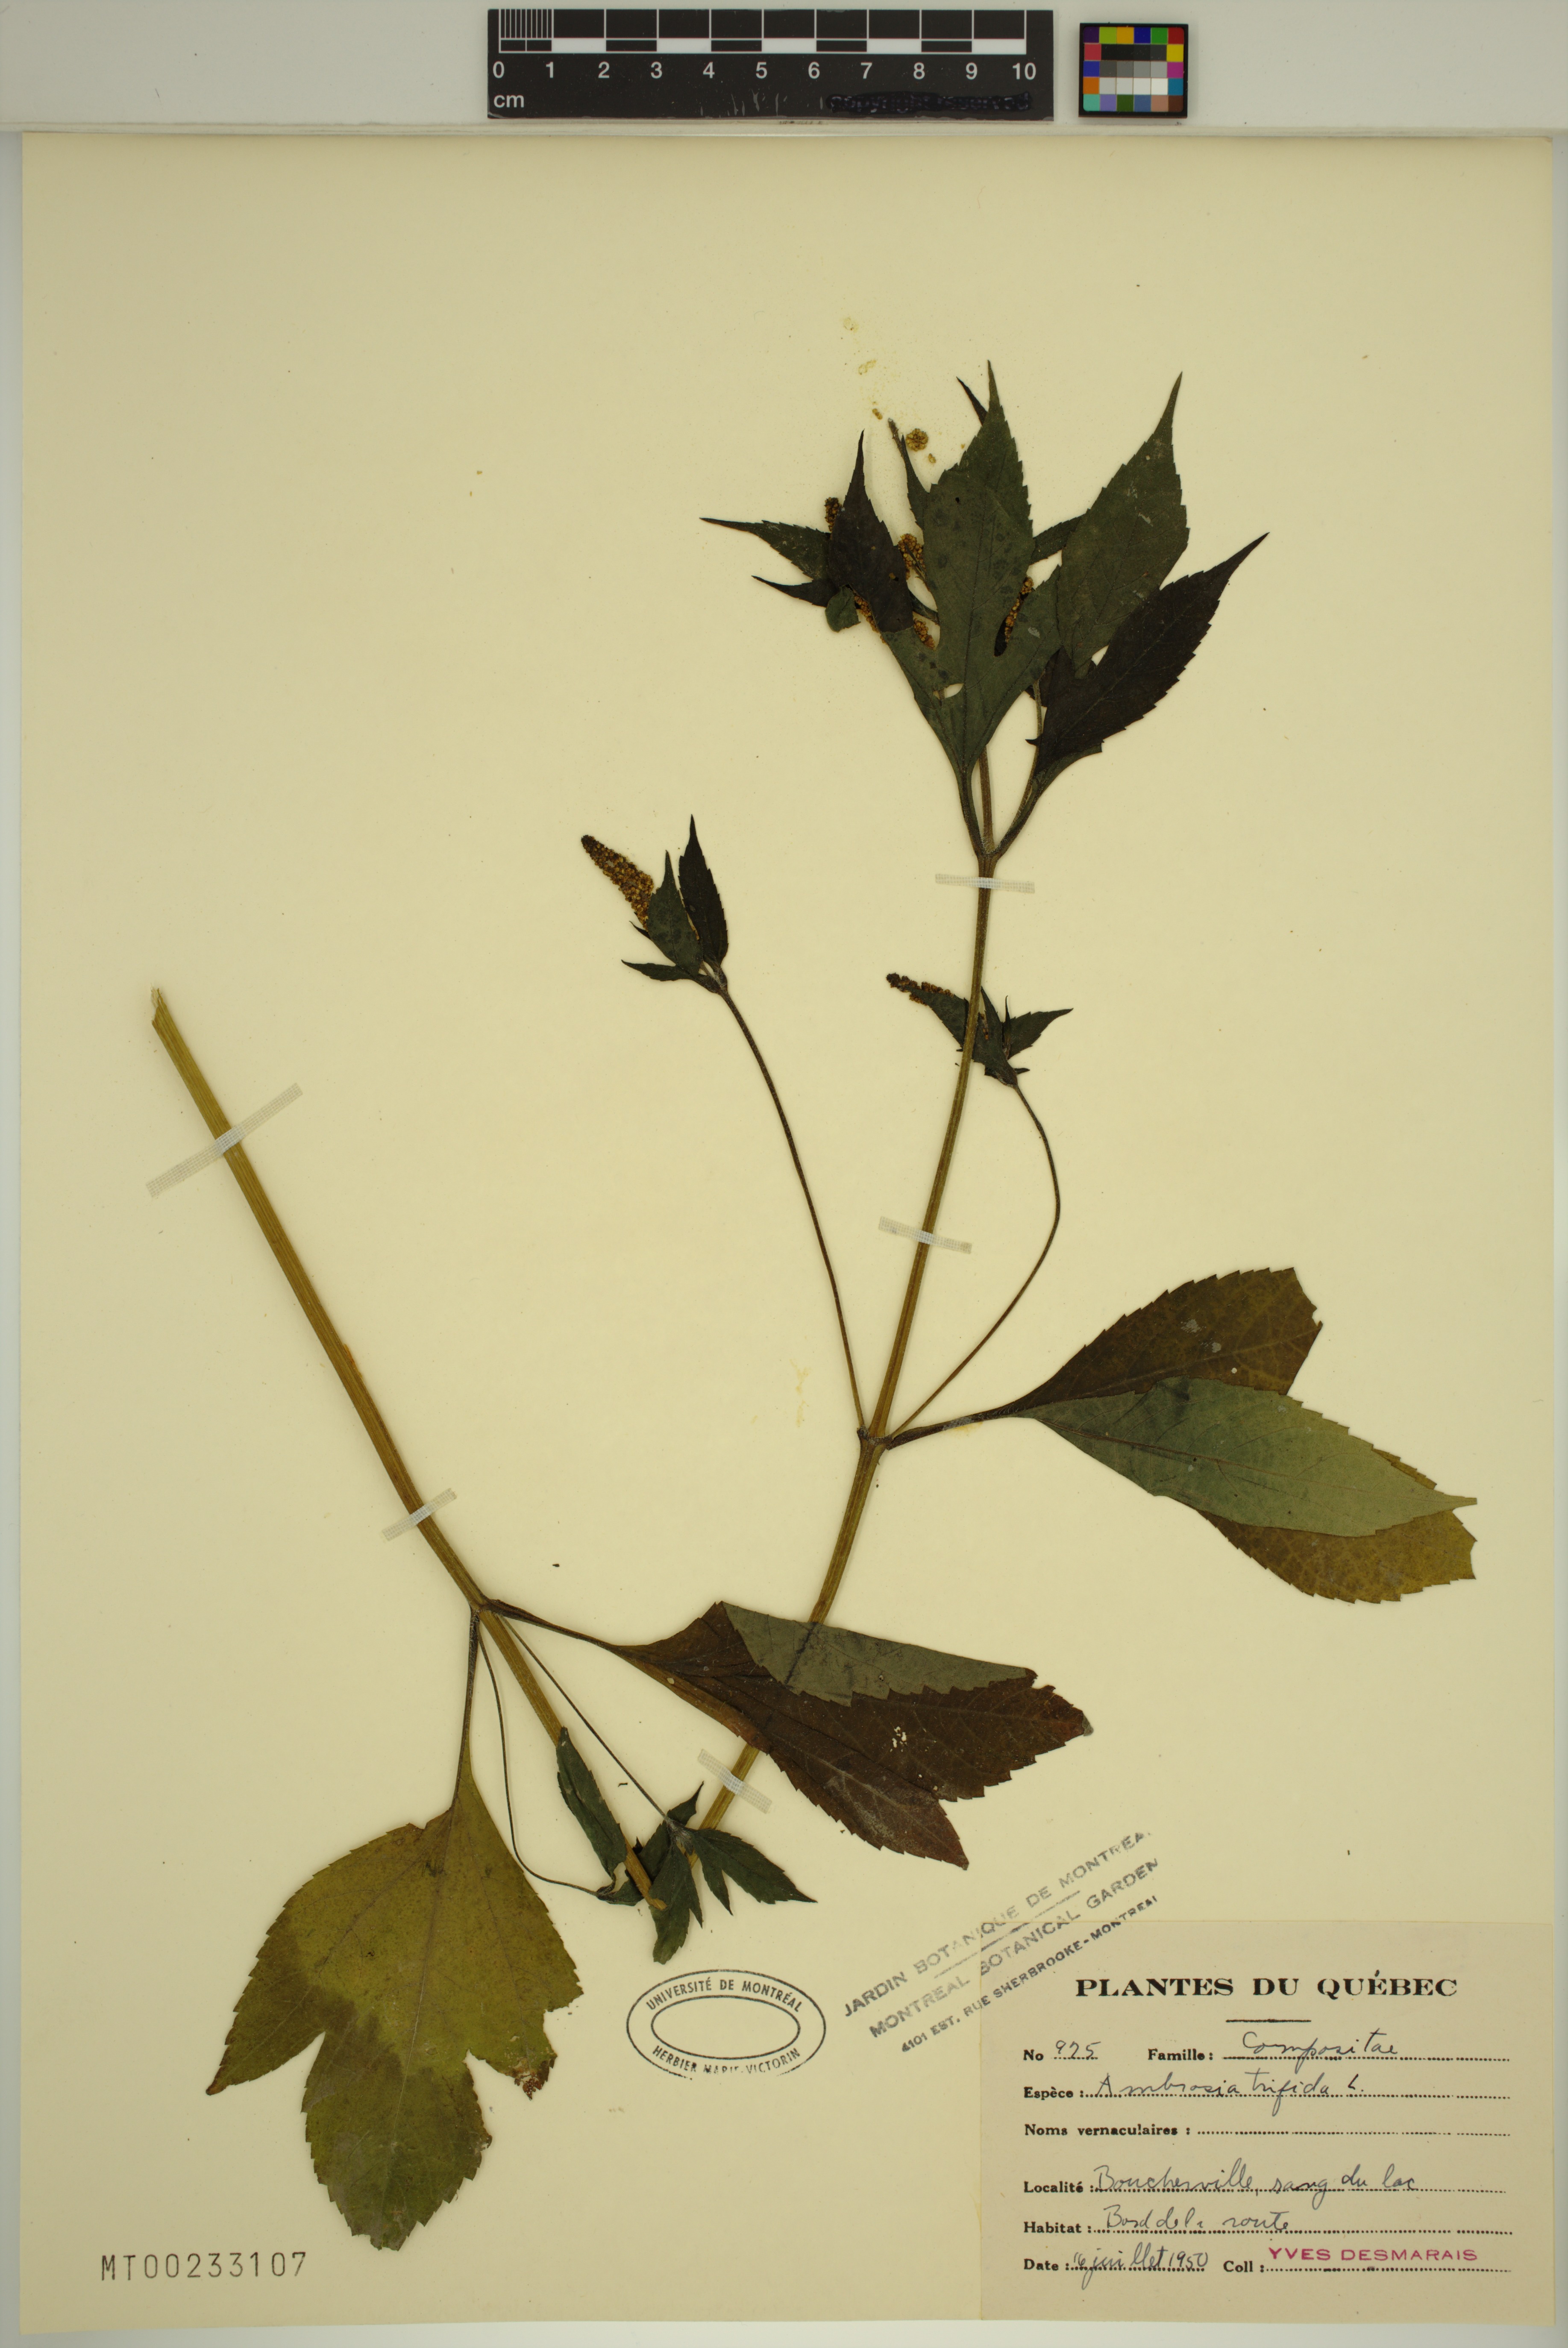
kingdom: Plantae
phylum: Tracheophyta
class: Magnoliopsida
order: Asterales
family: Asteraceae
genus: Ambrosia
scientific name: Ambrosia trifida
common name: Giant ragweed
